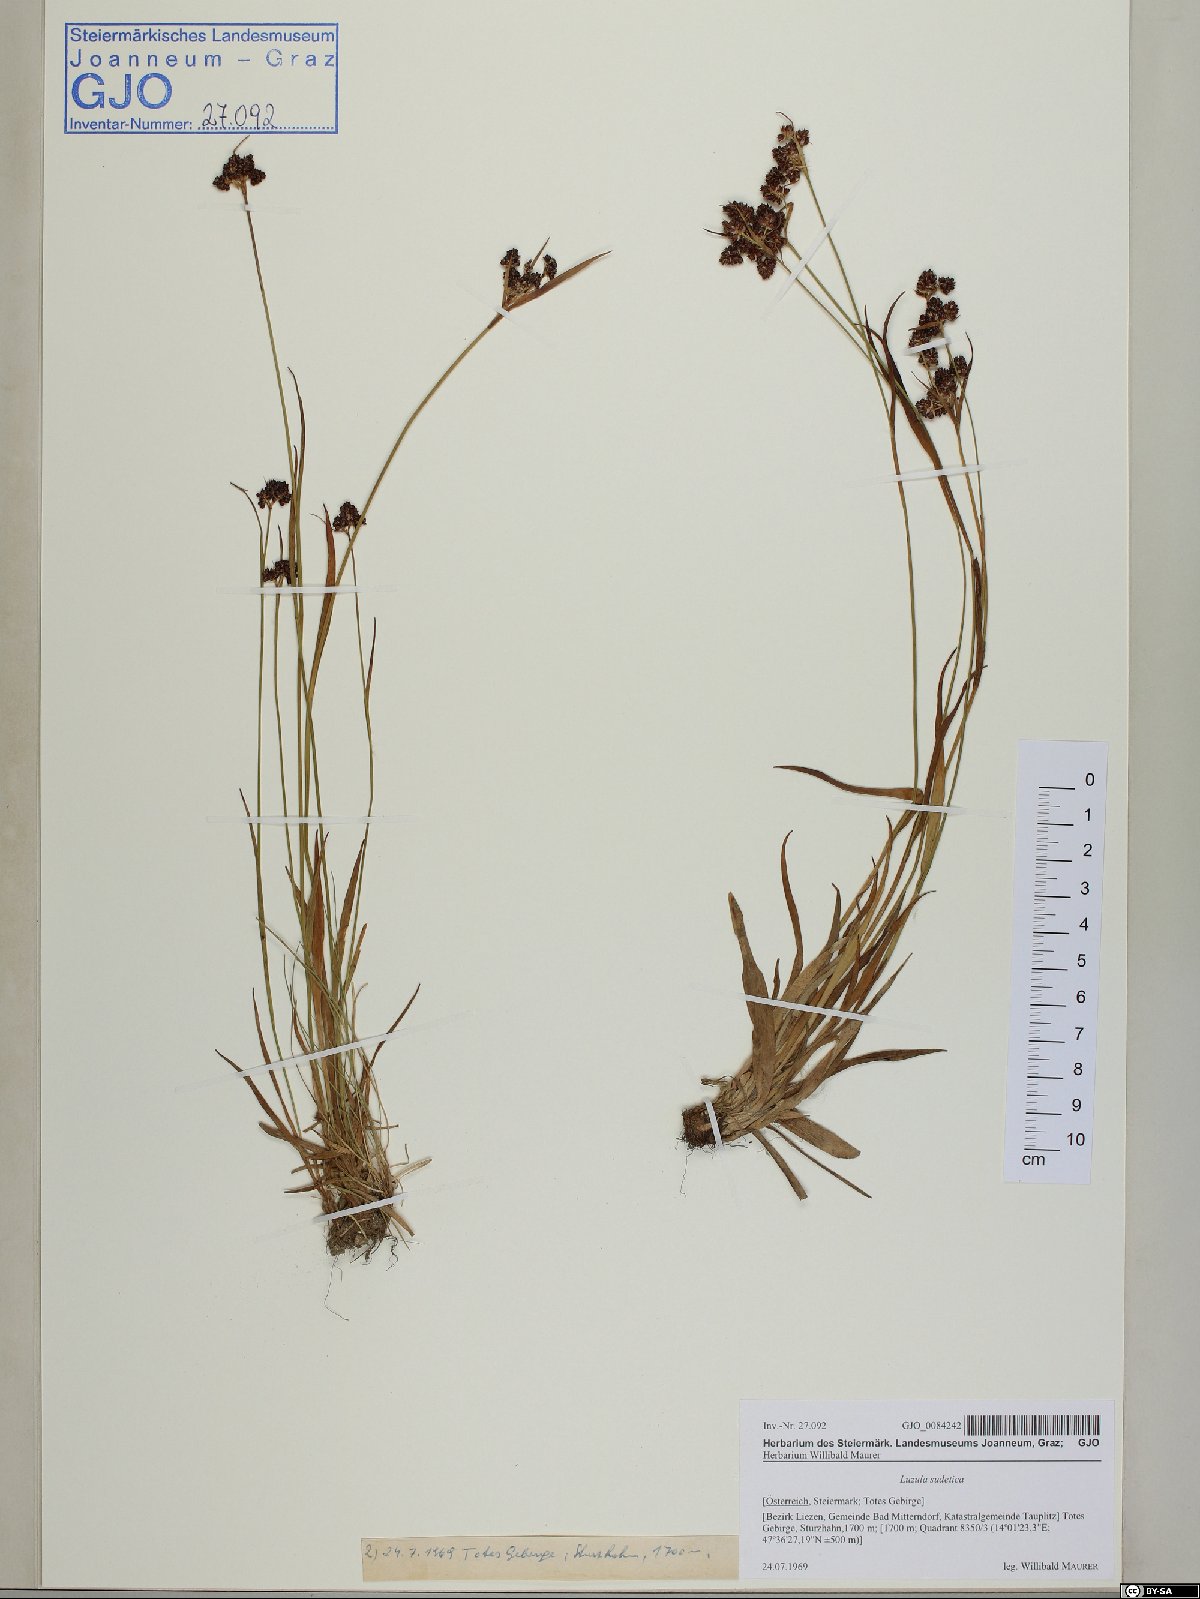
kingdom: Plantae
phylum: Tracheophyta
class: Liliopsida
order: Poales
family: Juncaceae
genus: Luzula
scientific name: Luzula sudetica
